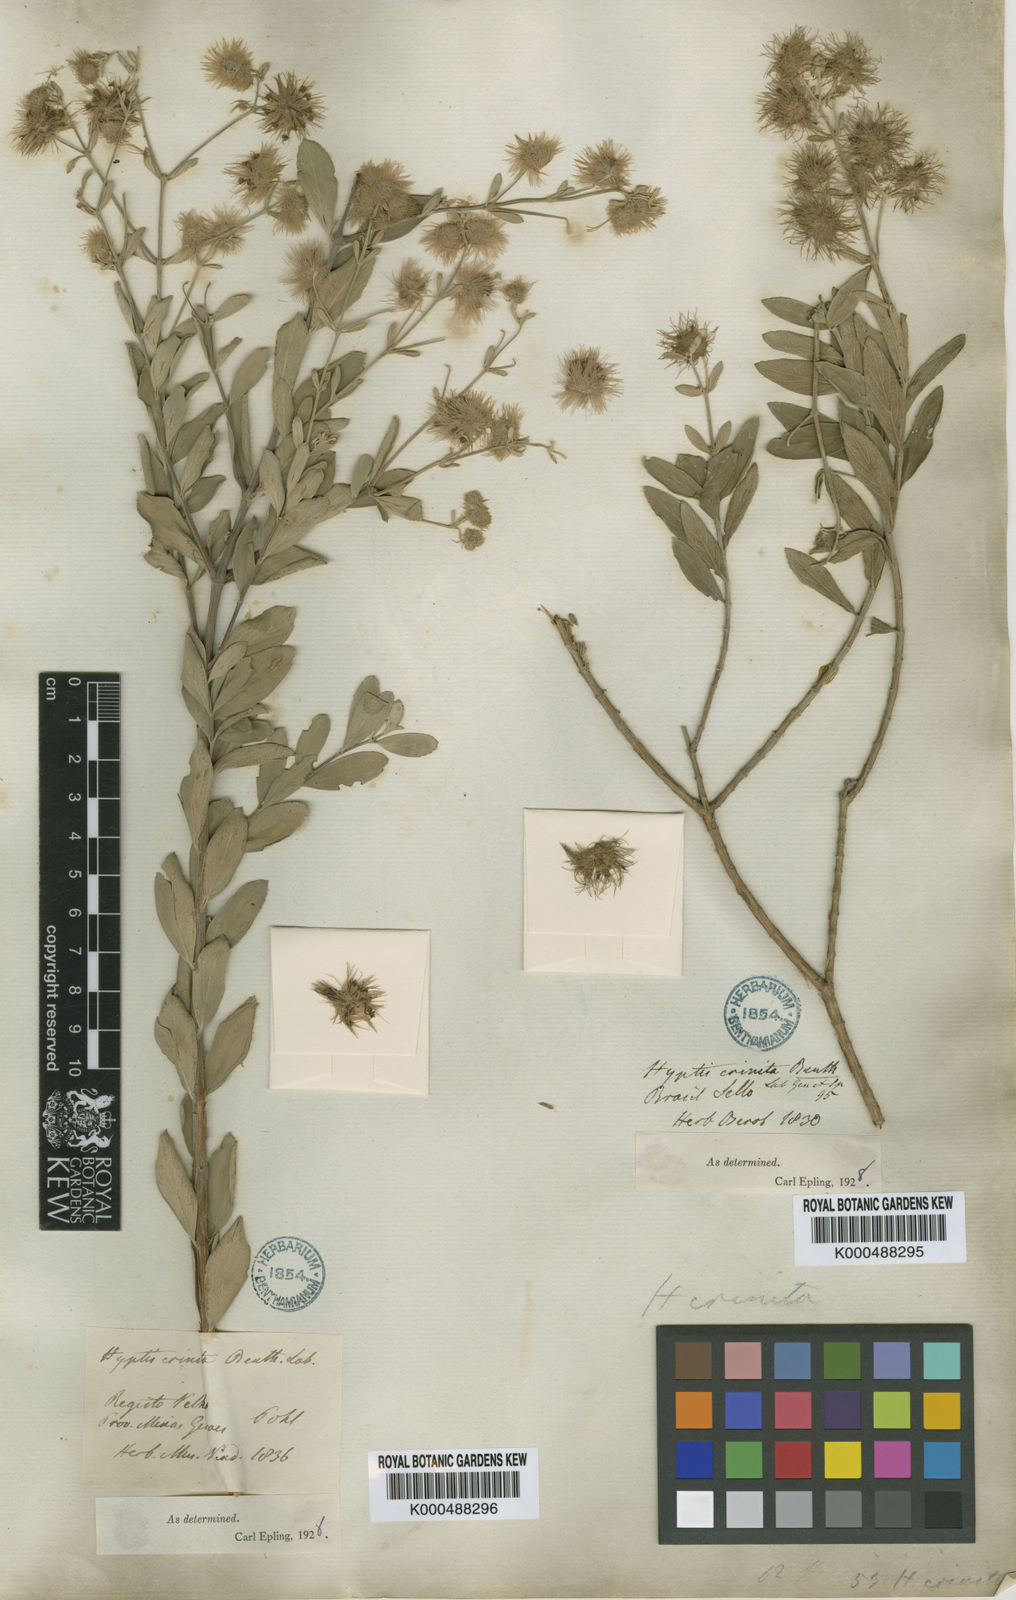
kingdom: Plantae
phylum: Tracheophyta
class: Magnoliopsida
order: Lamiales
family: Lamiaceae
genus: Medusantha
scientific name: Medusantha crinita
